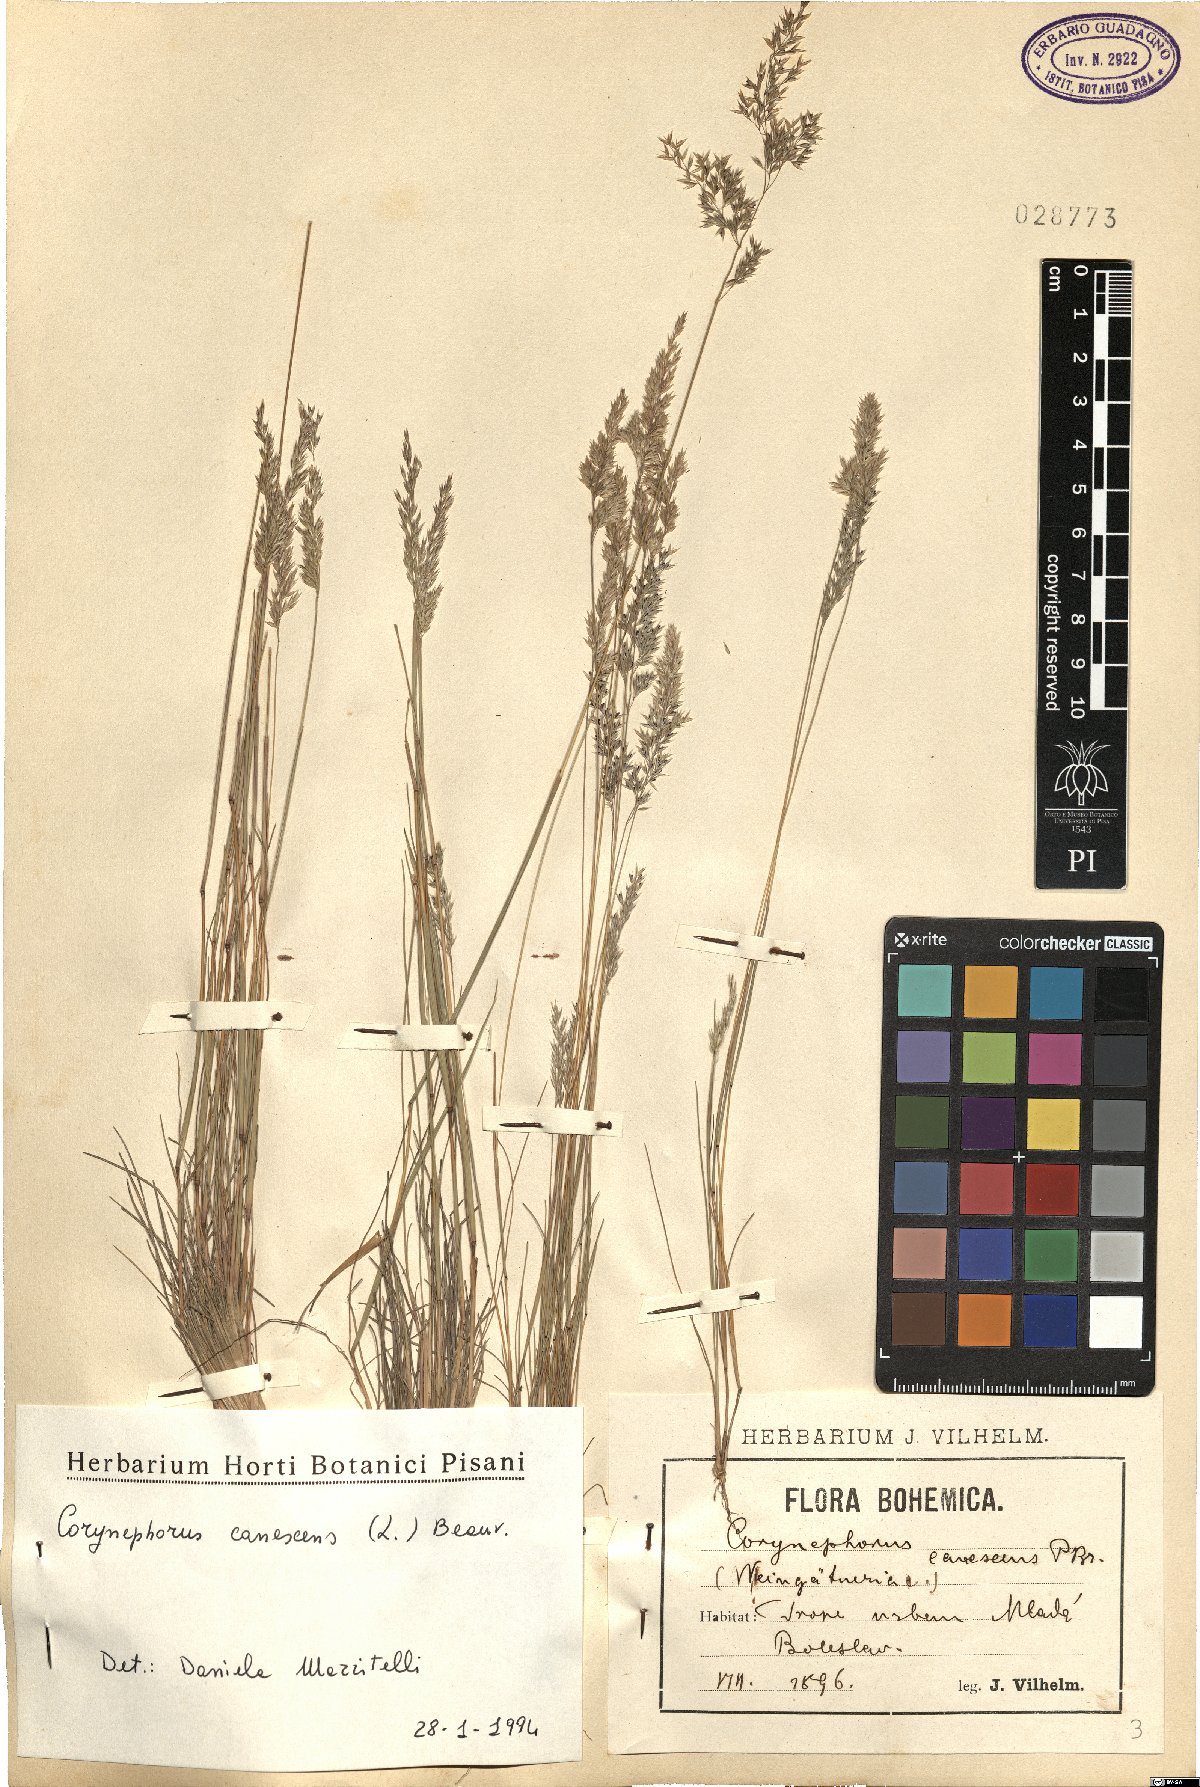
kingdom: Plantae
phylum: Tracheophyta
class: Liliopsida
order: Poales
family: Poaceae
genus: Corynephorus
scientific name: Corynephorus canescens
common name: Grey hair-grass
